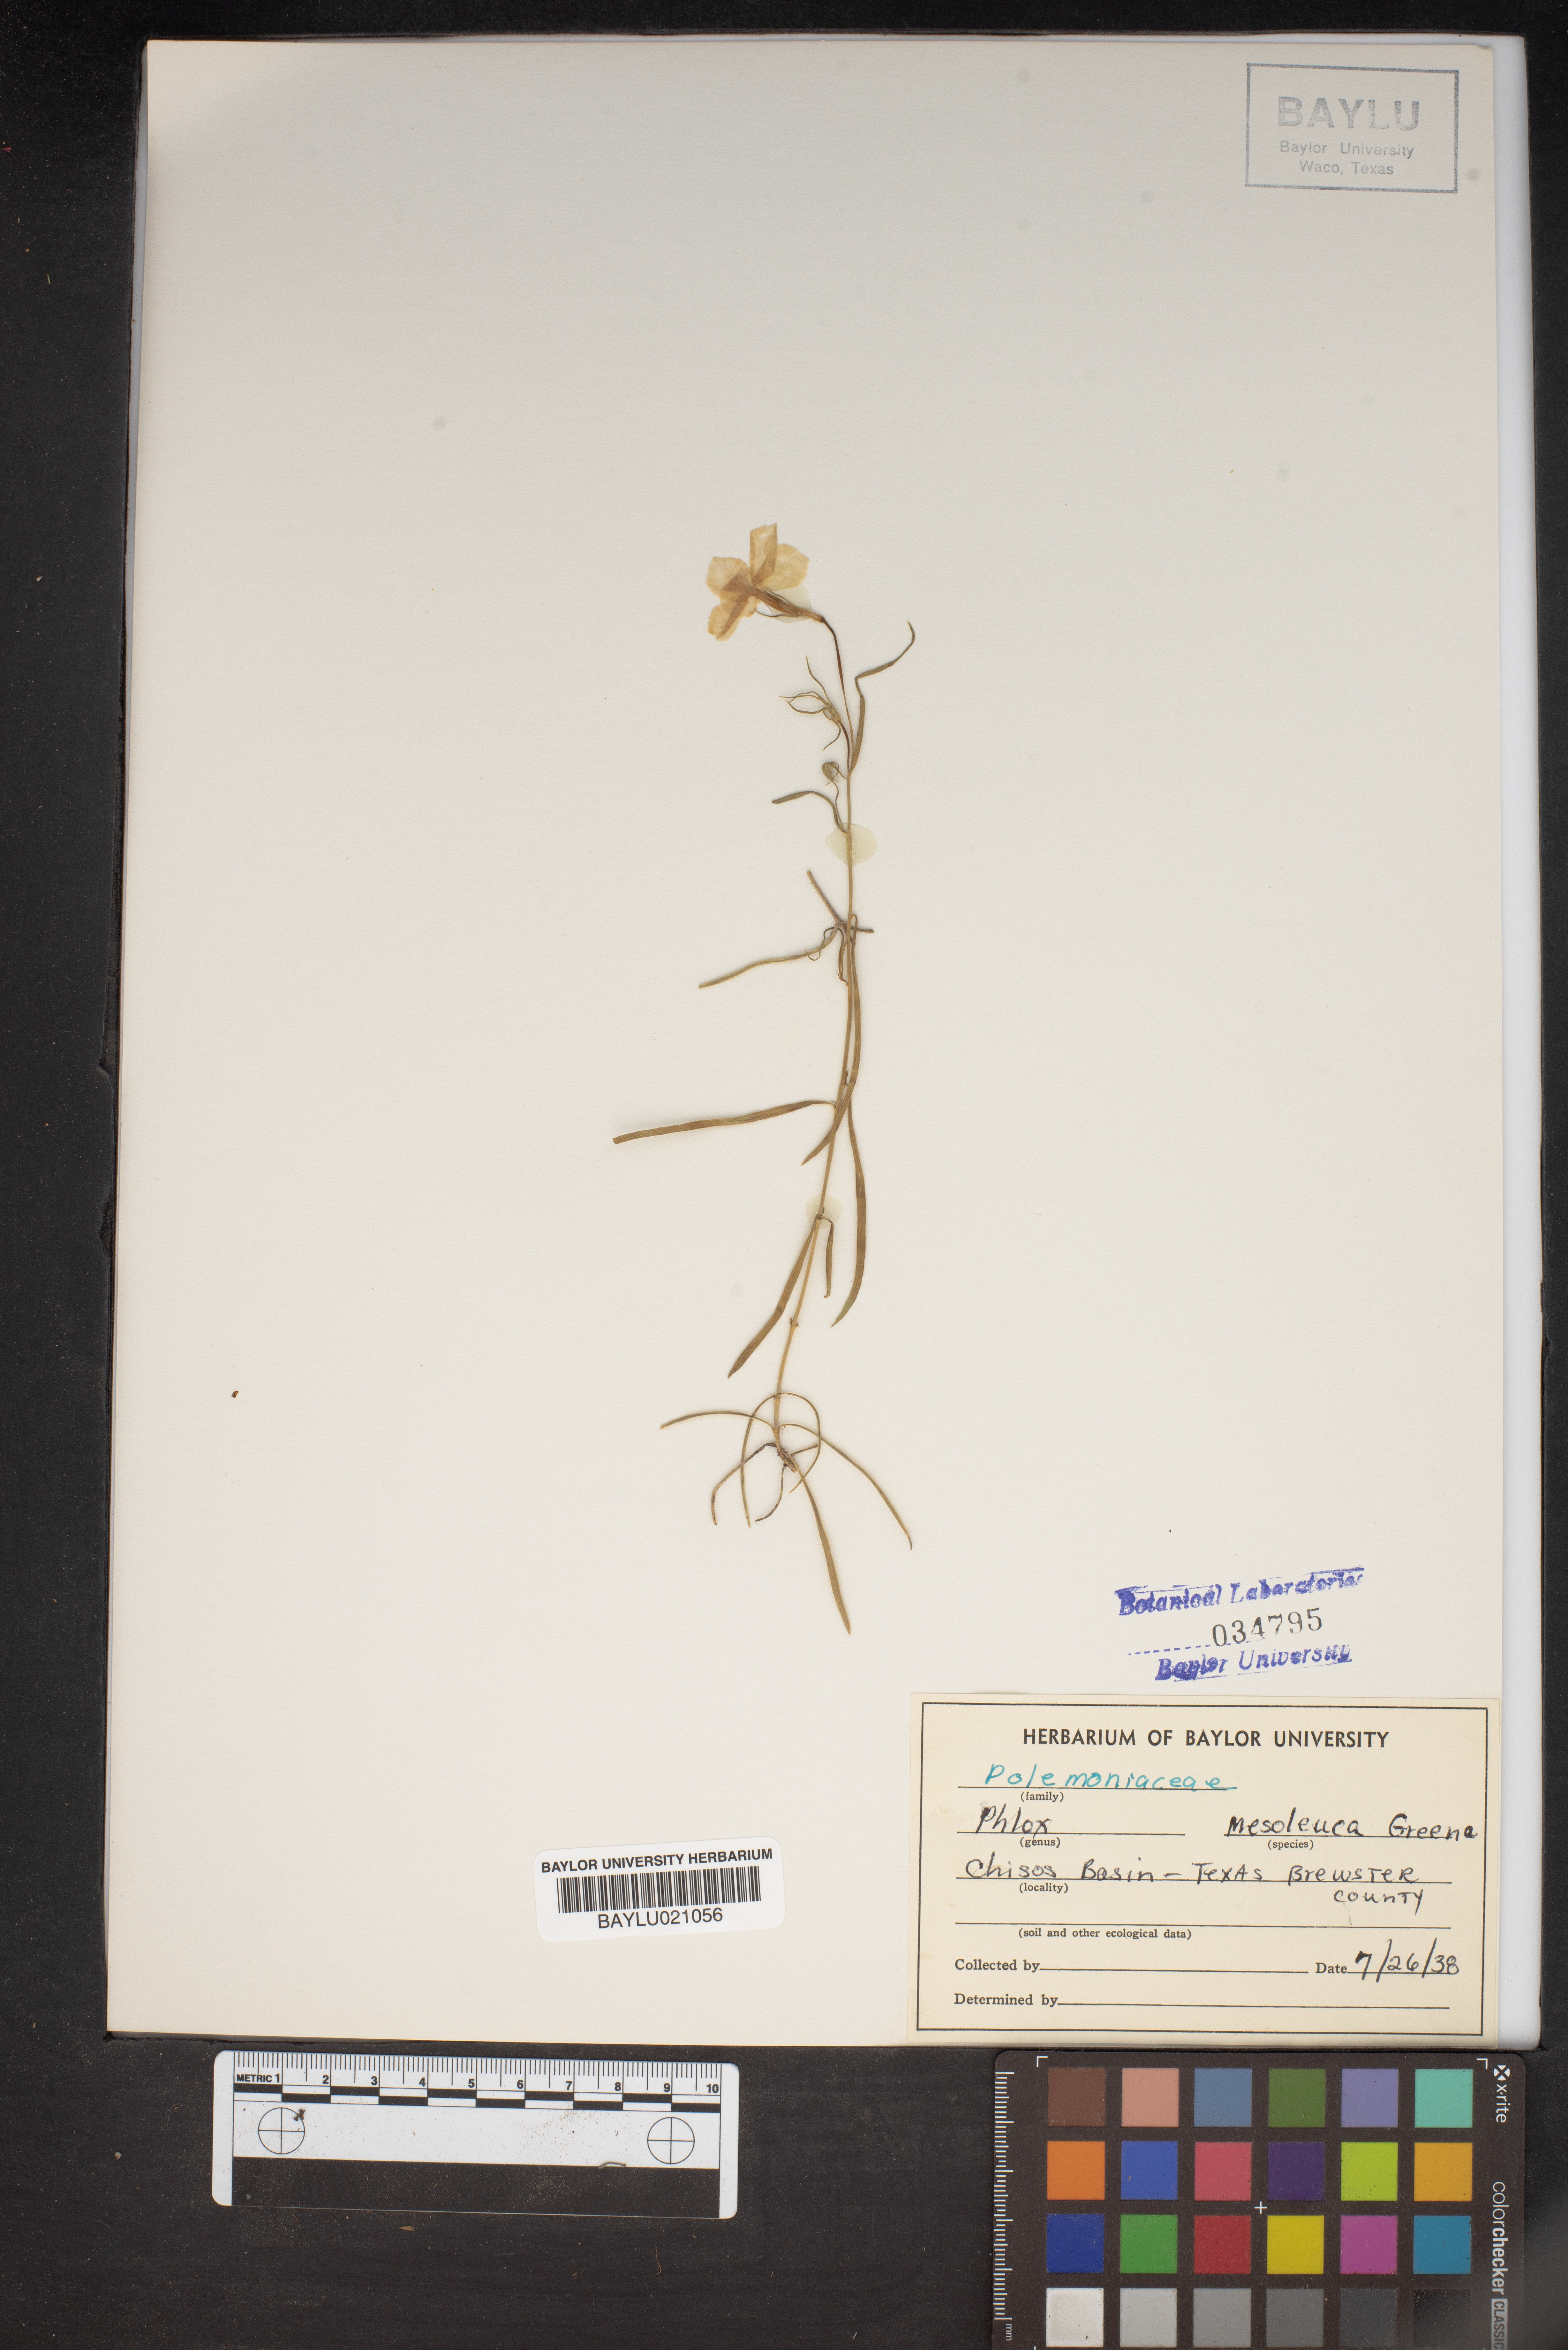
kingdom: Plantae
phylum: Tracheophyta
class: Magnoliopsida
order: Ericales
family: Polemoniaceae
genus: Phlox
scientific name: Phlox mesoleuca
